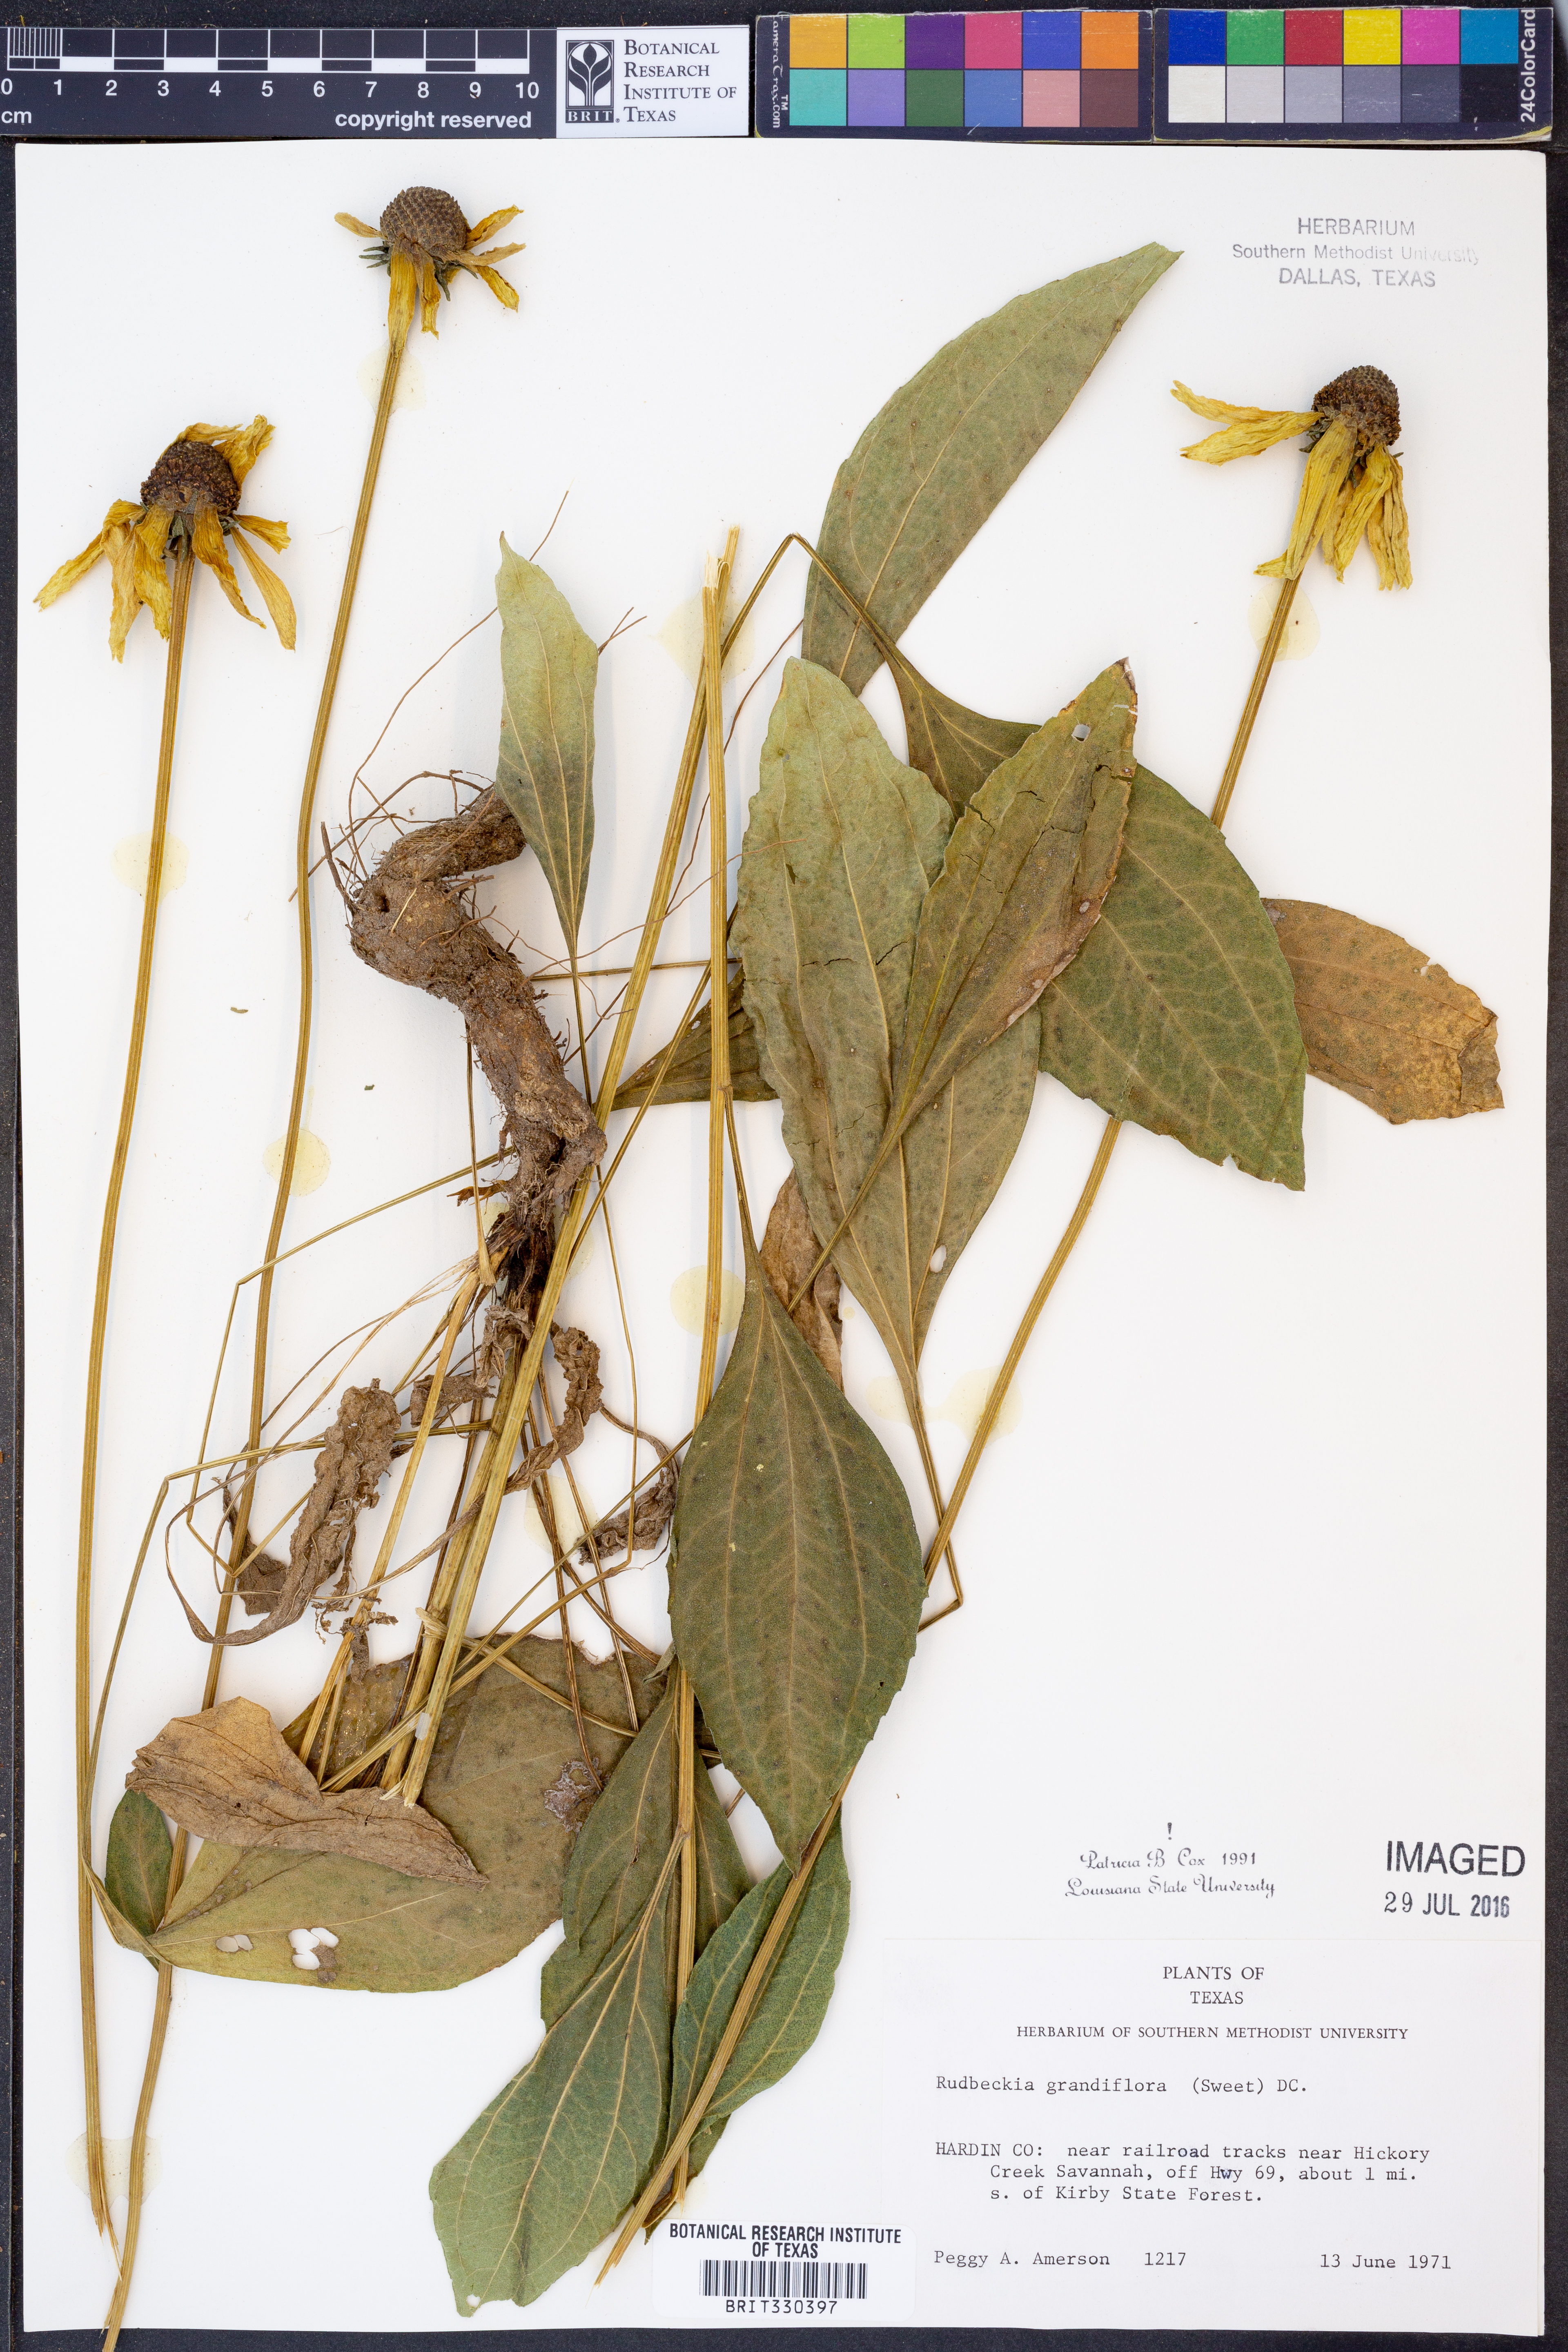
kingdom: Plantae
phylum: Tracheophyta
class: Magnoliopsida
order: Asterales
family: Asteraceae
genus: Rudbeckia
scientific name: Rudbeckia grandiflora
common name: Large-flowered coneflower
